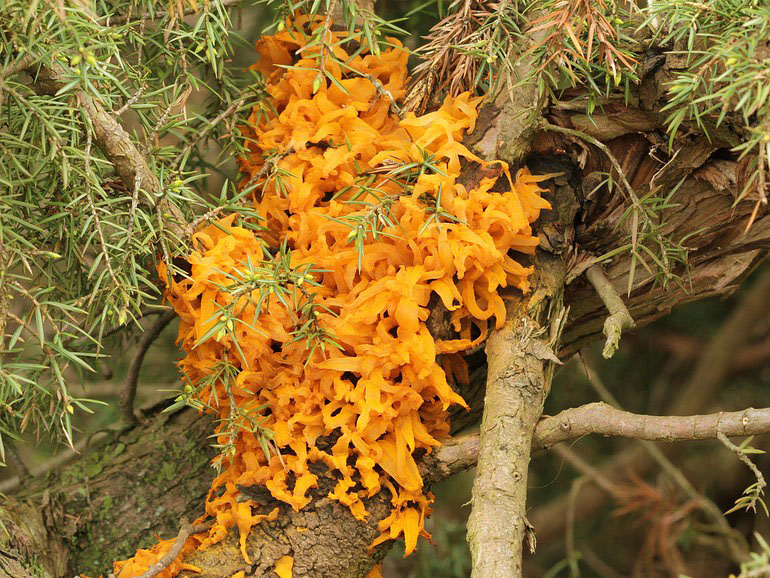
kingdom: Fungi
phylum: Basidiomycota
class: Pucciniomycetes
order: Pucciniales
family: Gymnosporangiaceae
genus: Gymnosporangium
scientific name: Gymnosporangium clavariiforme
